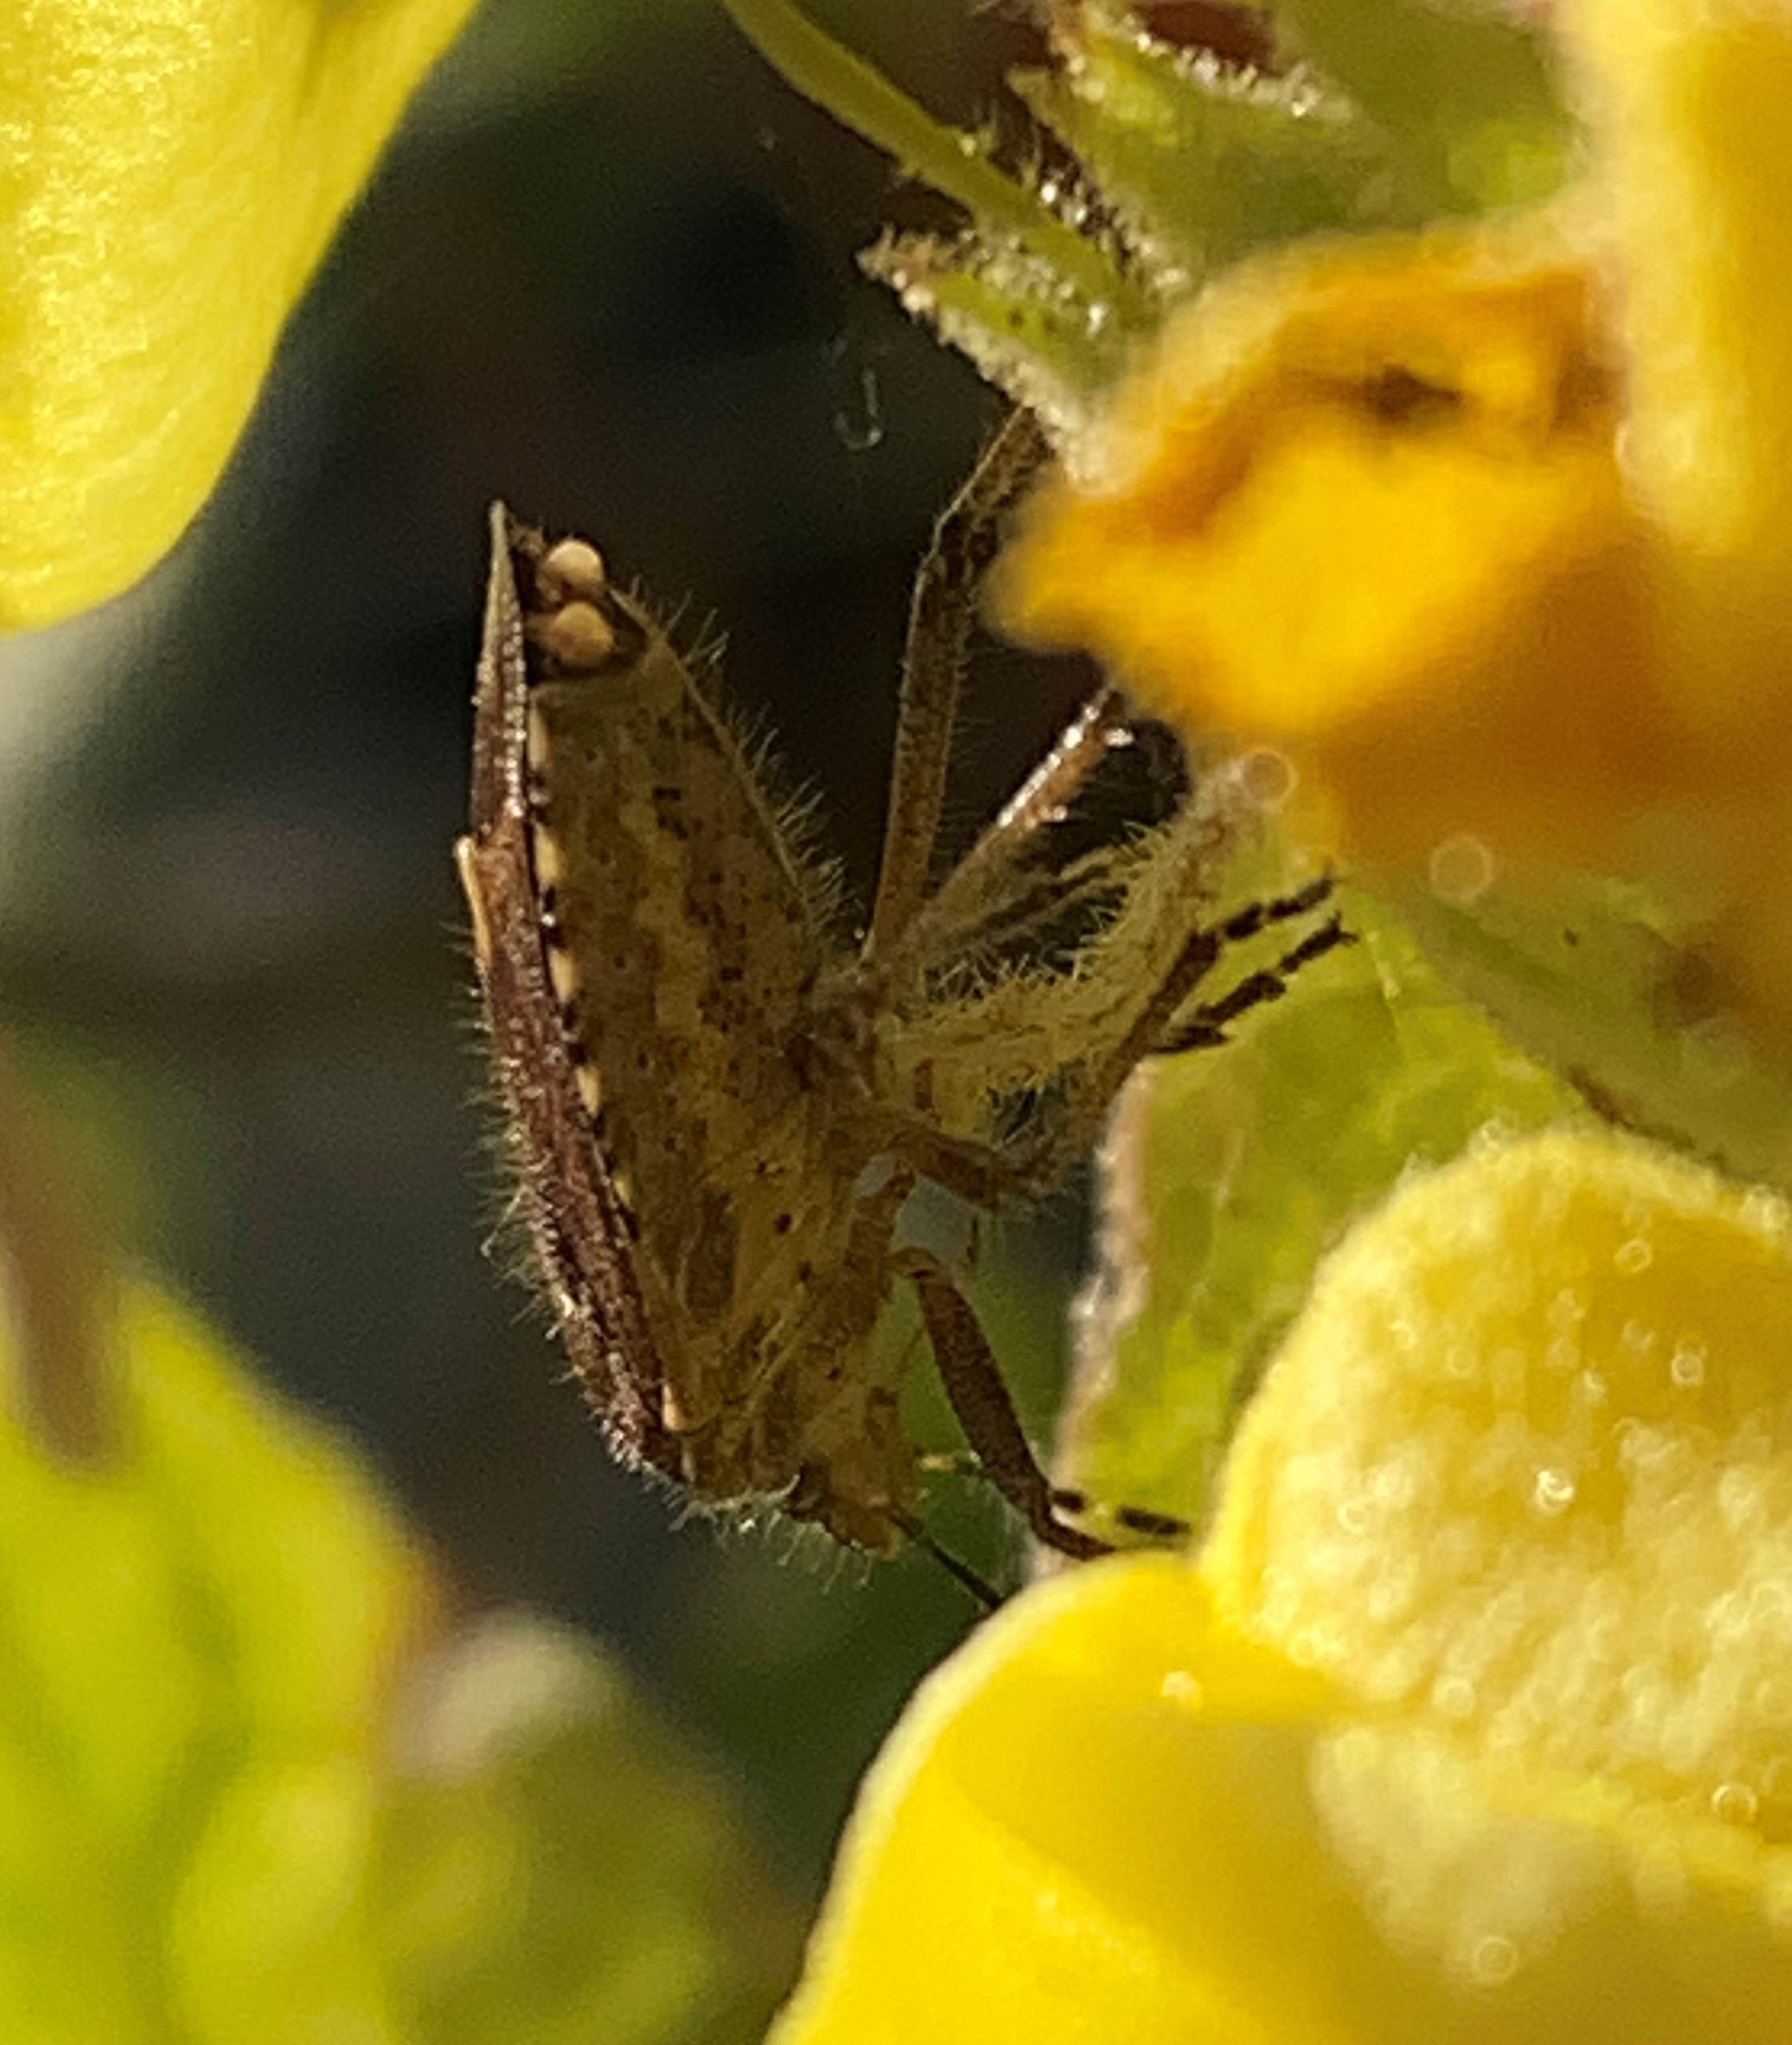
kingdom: Animalia
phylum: Arthropoda
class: Insecta
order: Hemiptera
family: Pentatomidae
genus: Dolycoris
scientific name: Dolycoris baccarum
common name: Almindelig bærtæge
